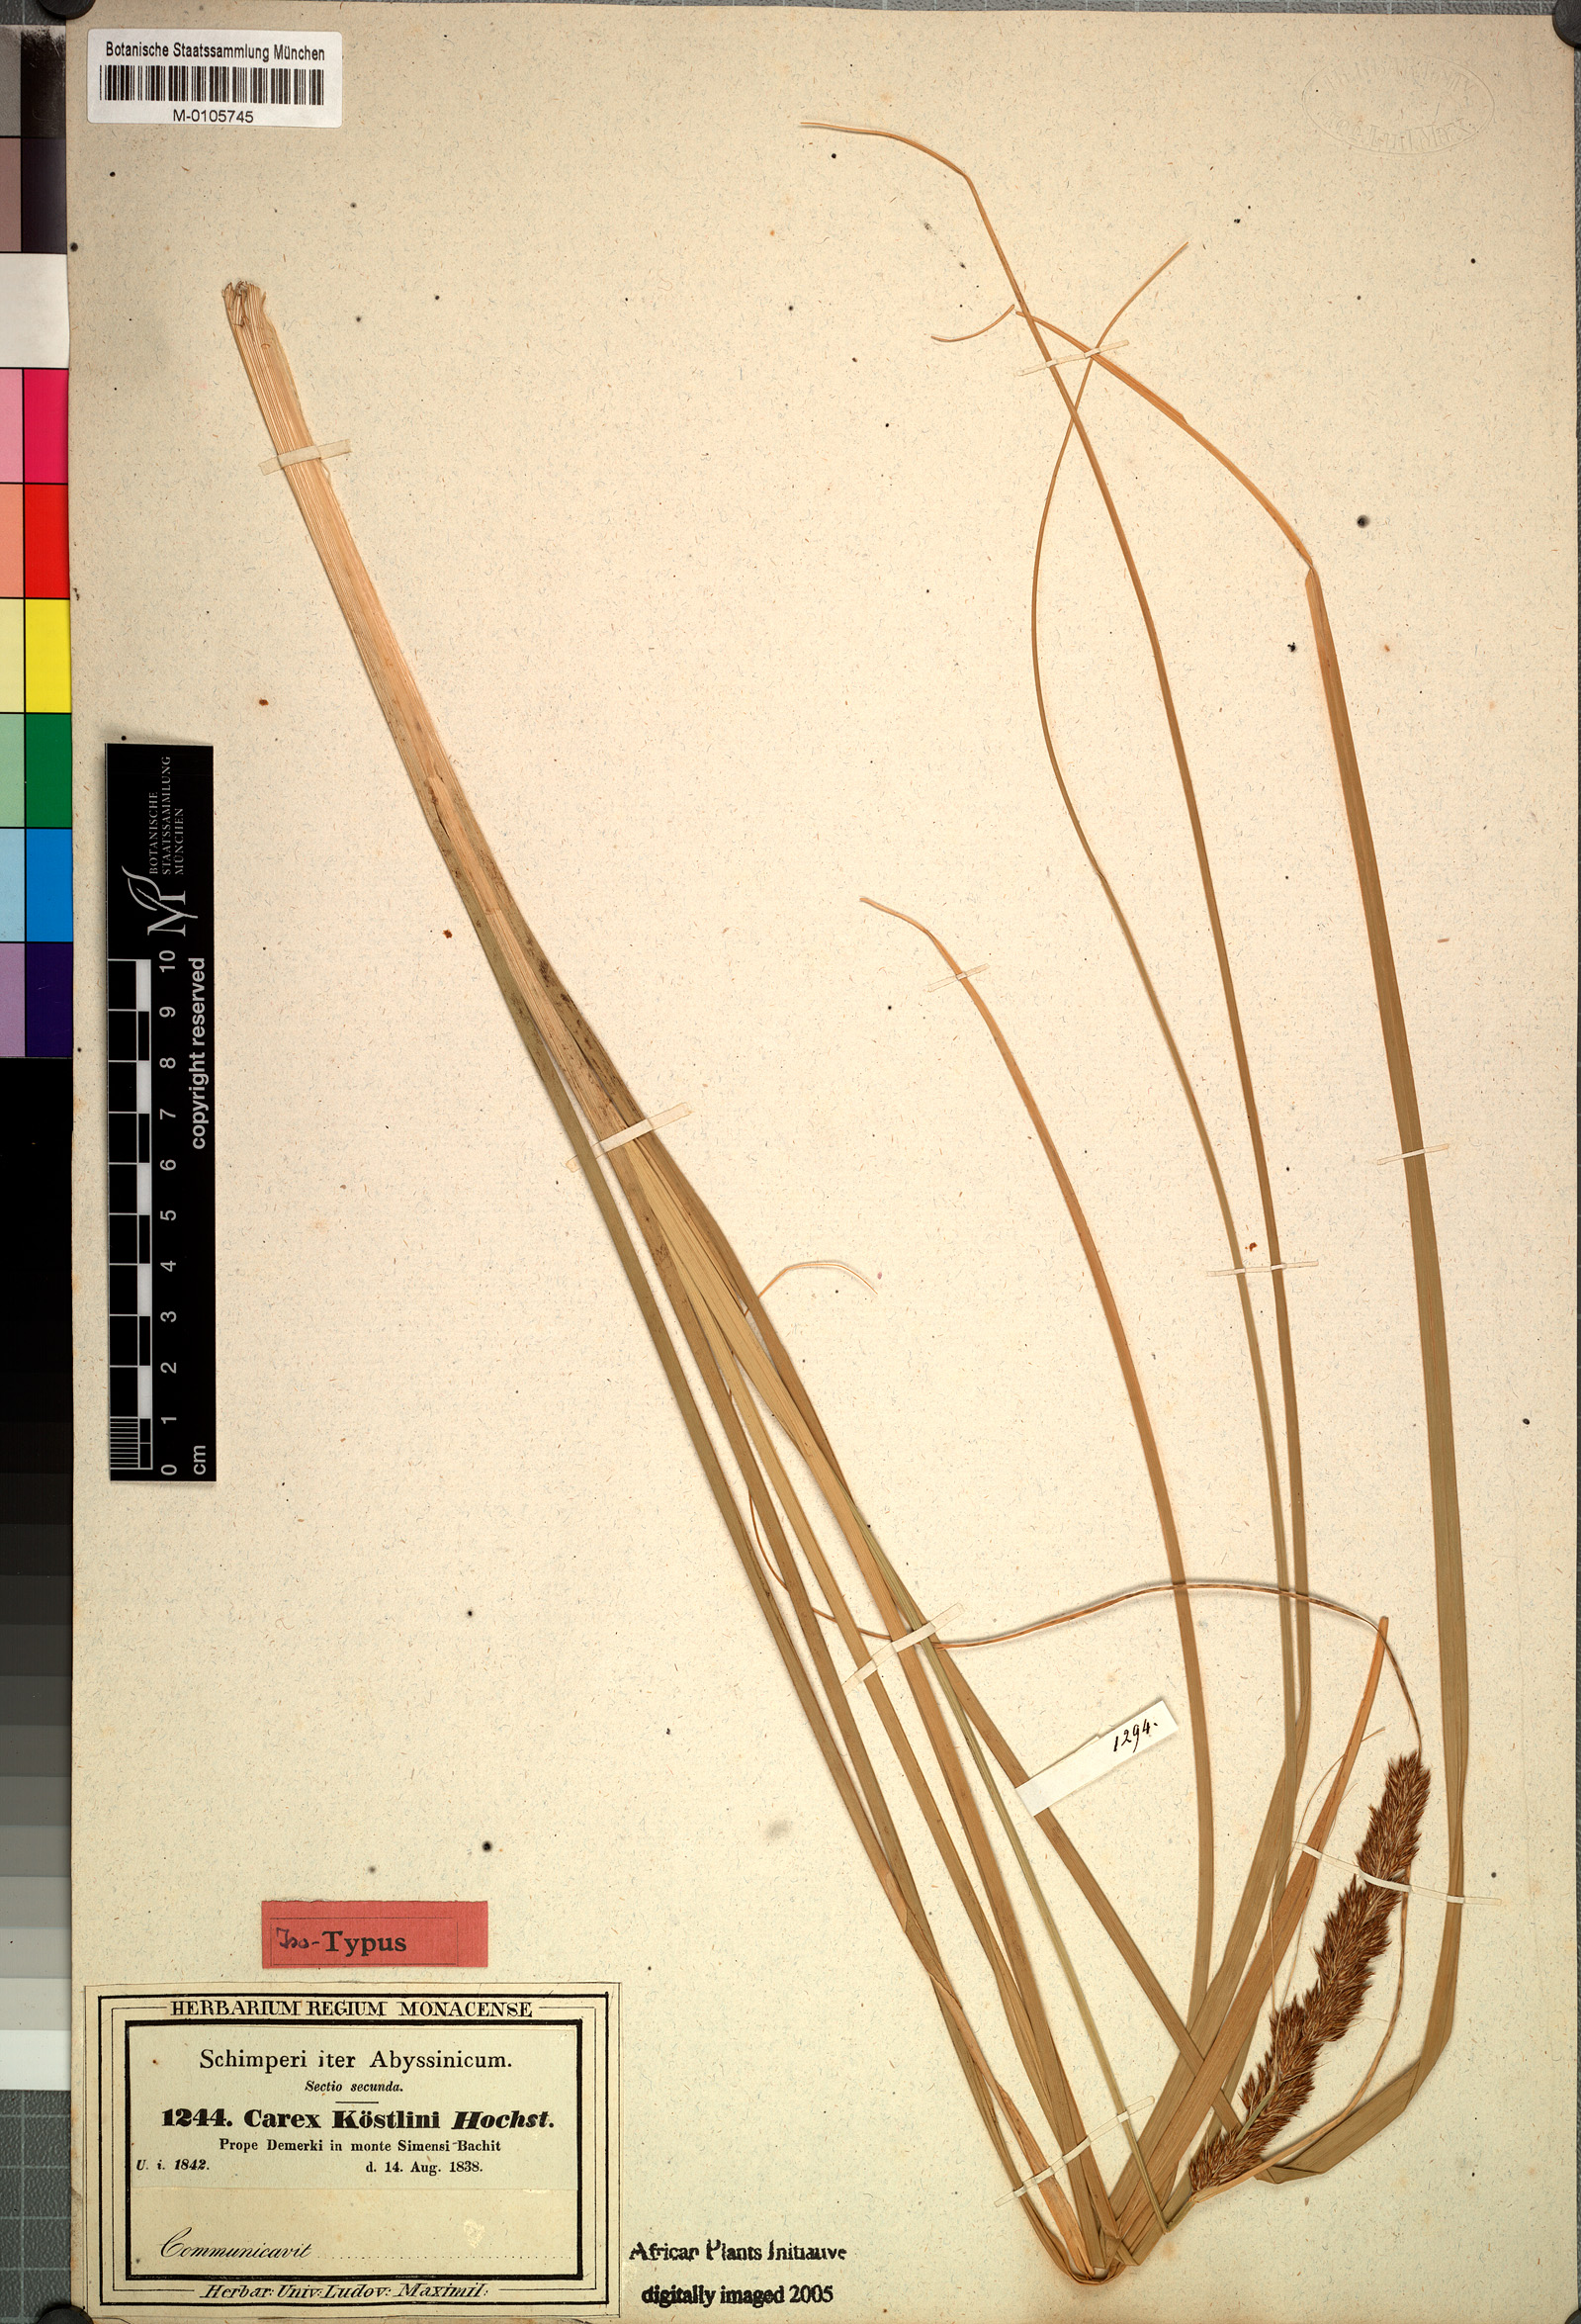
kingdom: Plantae
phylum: Tracheophyta
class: Liliopsida
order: Poales
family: Cyperaceae
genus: Carex
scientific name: Carex
